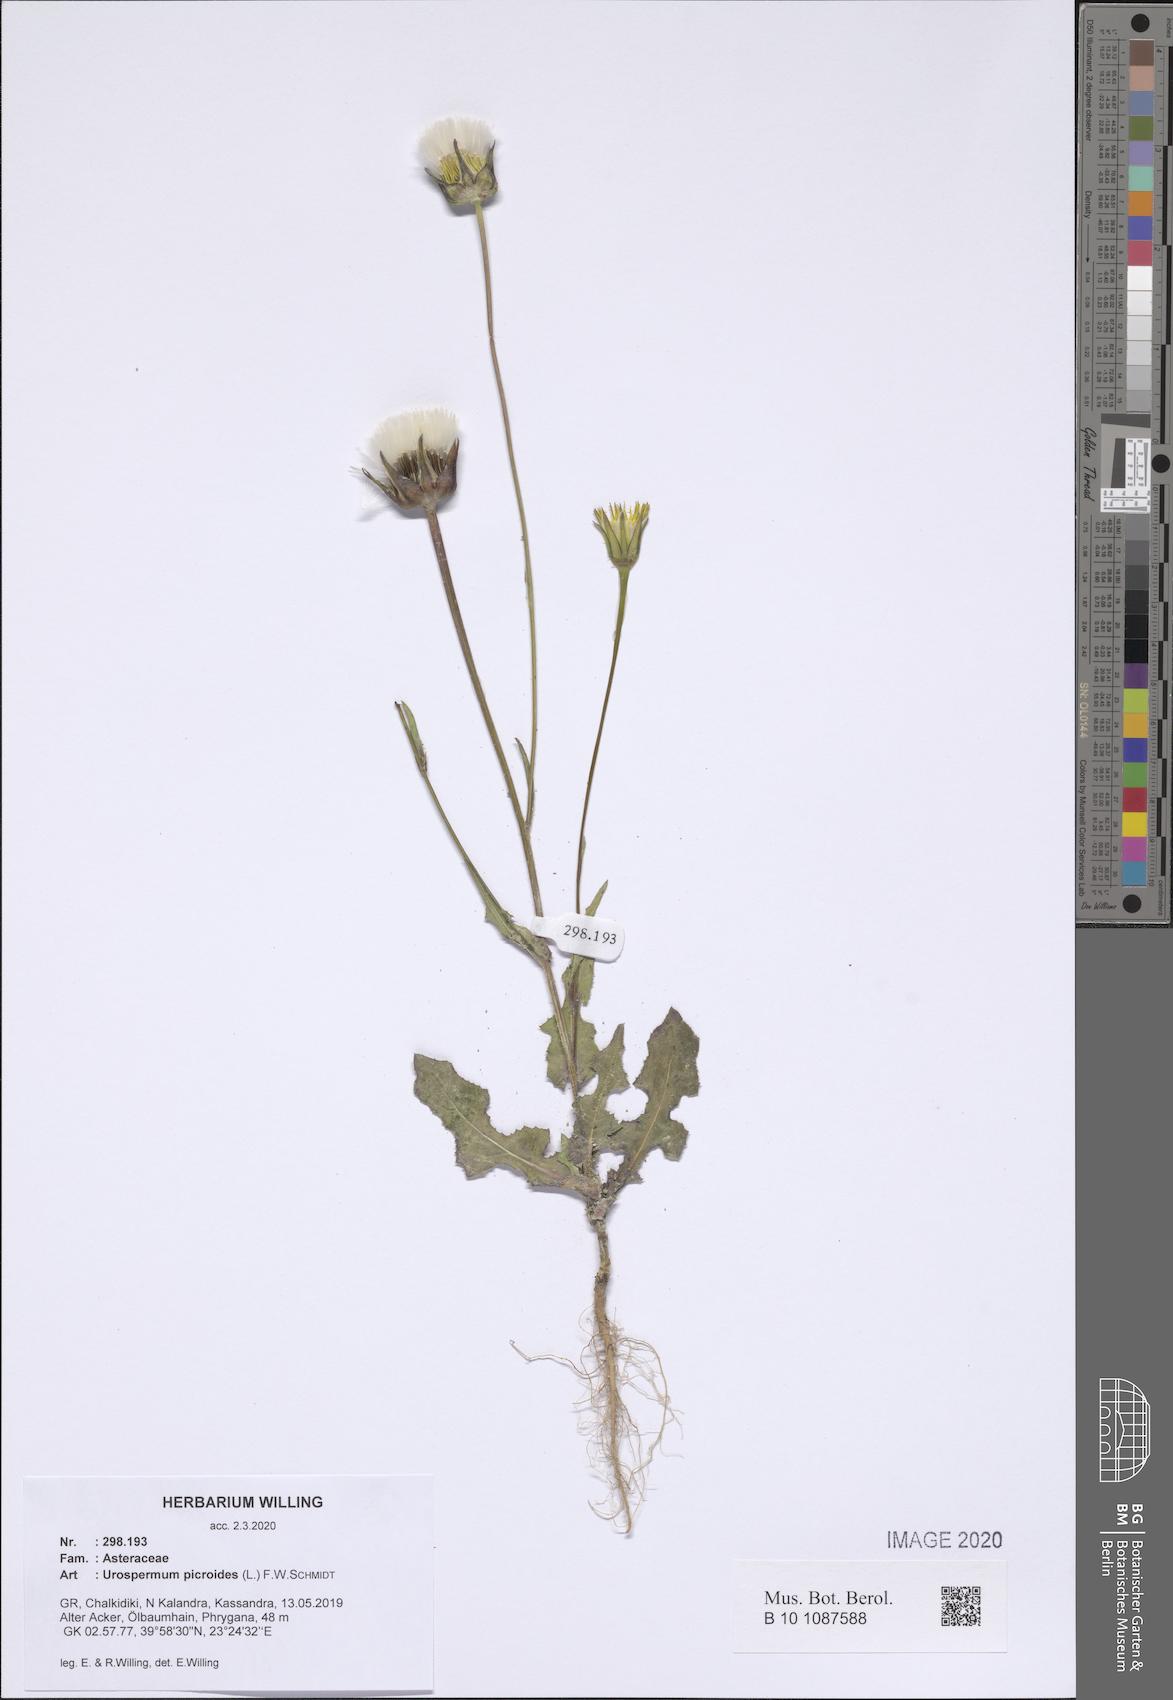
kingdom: Plantae
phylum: Tracheophyta
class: Magnoliopsida
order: Asterales
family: Asteraceae
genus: Urospermum
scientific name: Urospermum picroides
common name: False hawkbit
